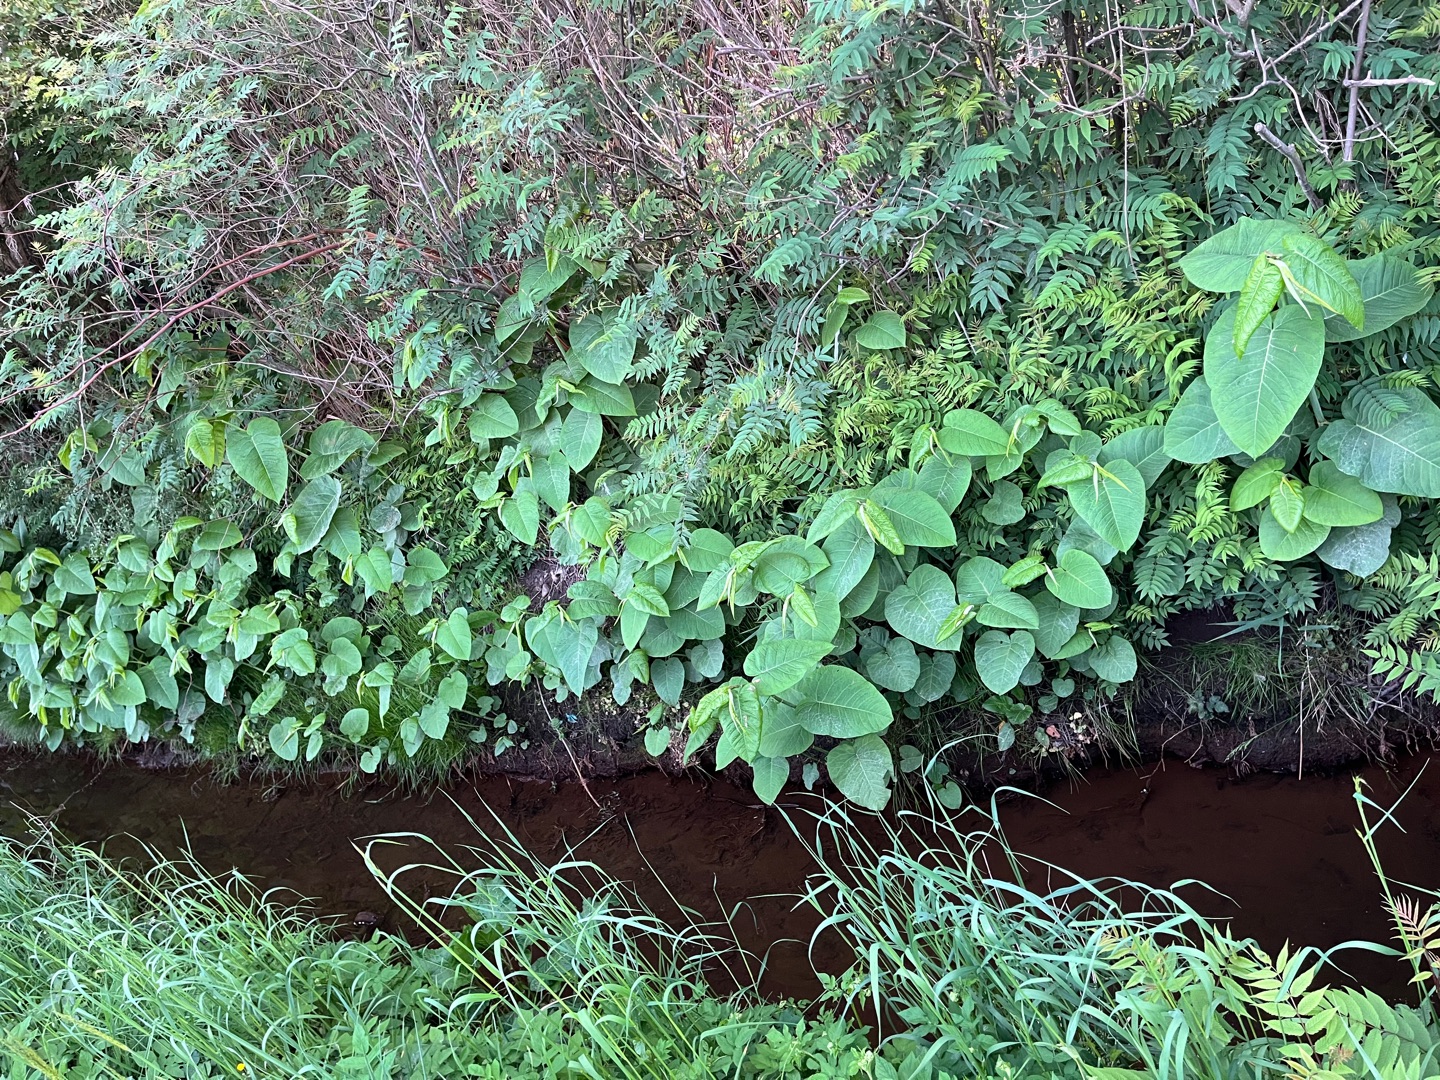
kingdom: Plantae
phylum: Tracheophyta
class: Magnoliopsida
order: Caryophyllales
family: Polygonaceae
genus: Reynoutria
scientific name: Reynoutria sachalinensis
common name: Kæmpe-pileurt
